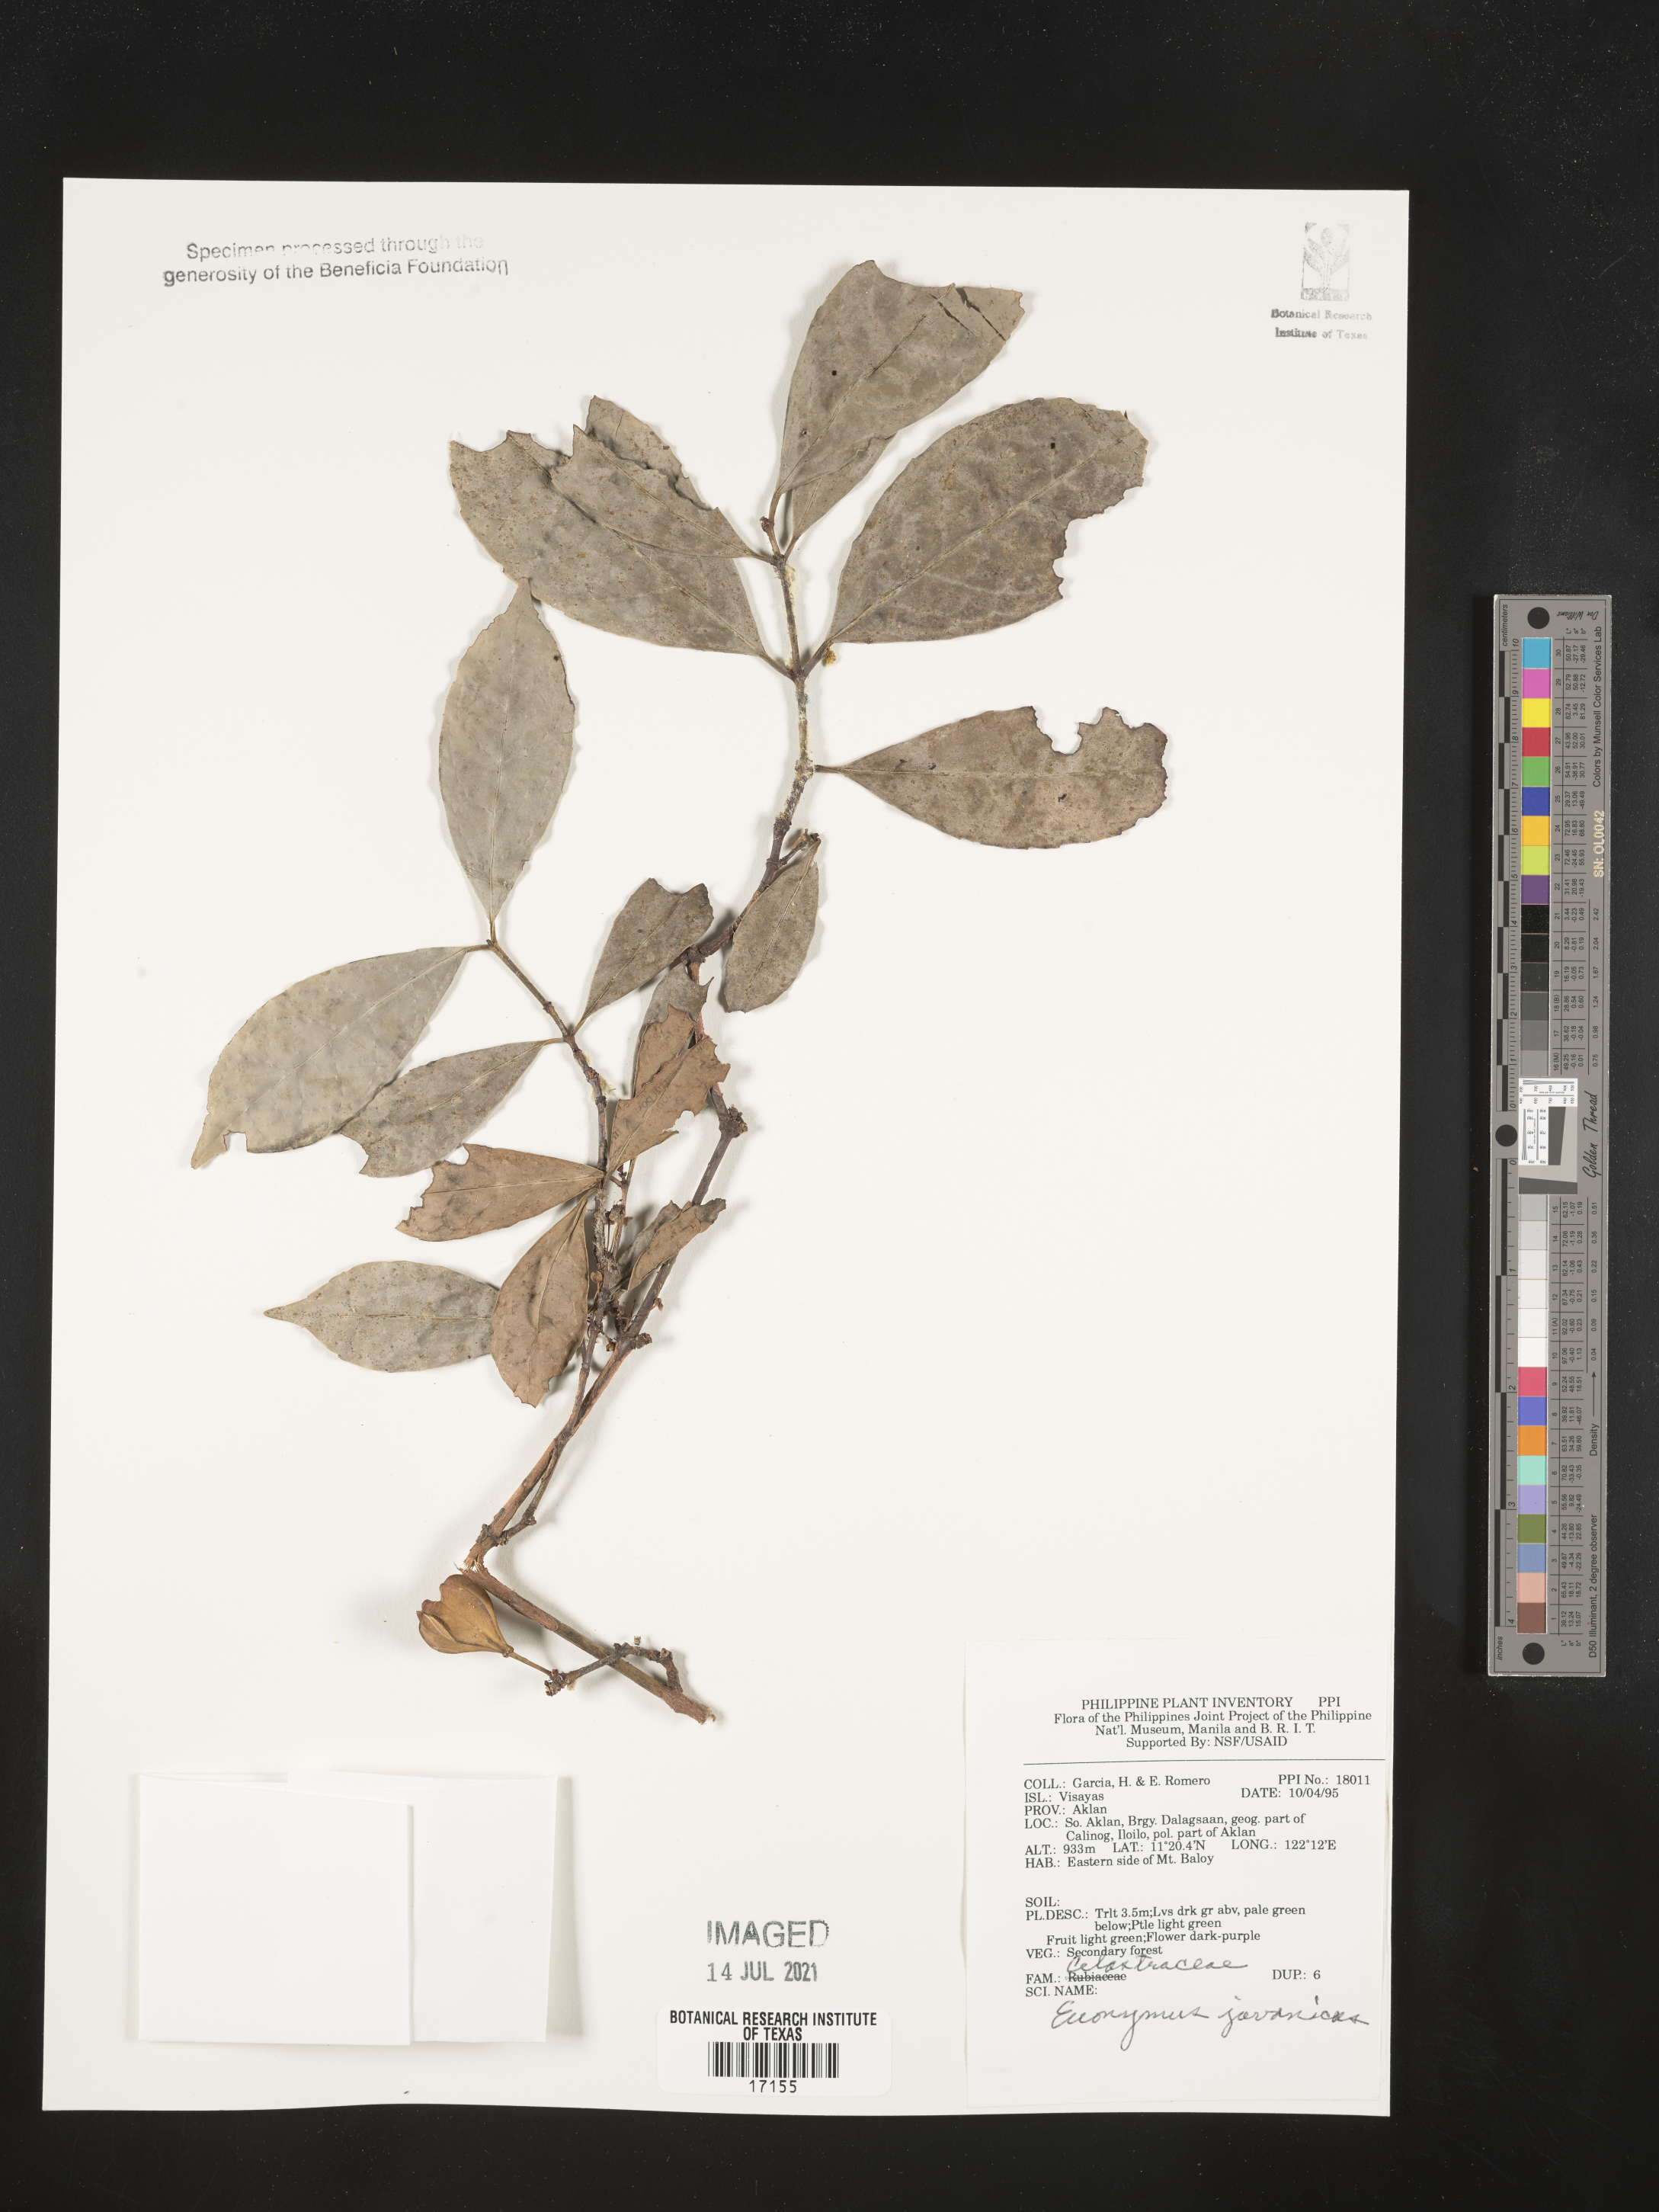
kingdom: Plantae
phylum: Tracheophyta
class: Magnoliopsida
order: Celastrales
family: Celastraceae
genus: Euonymus
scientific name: Euonymus indicus
